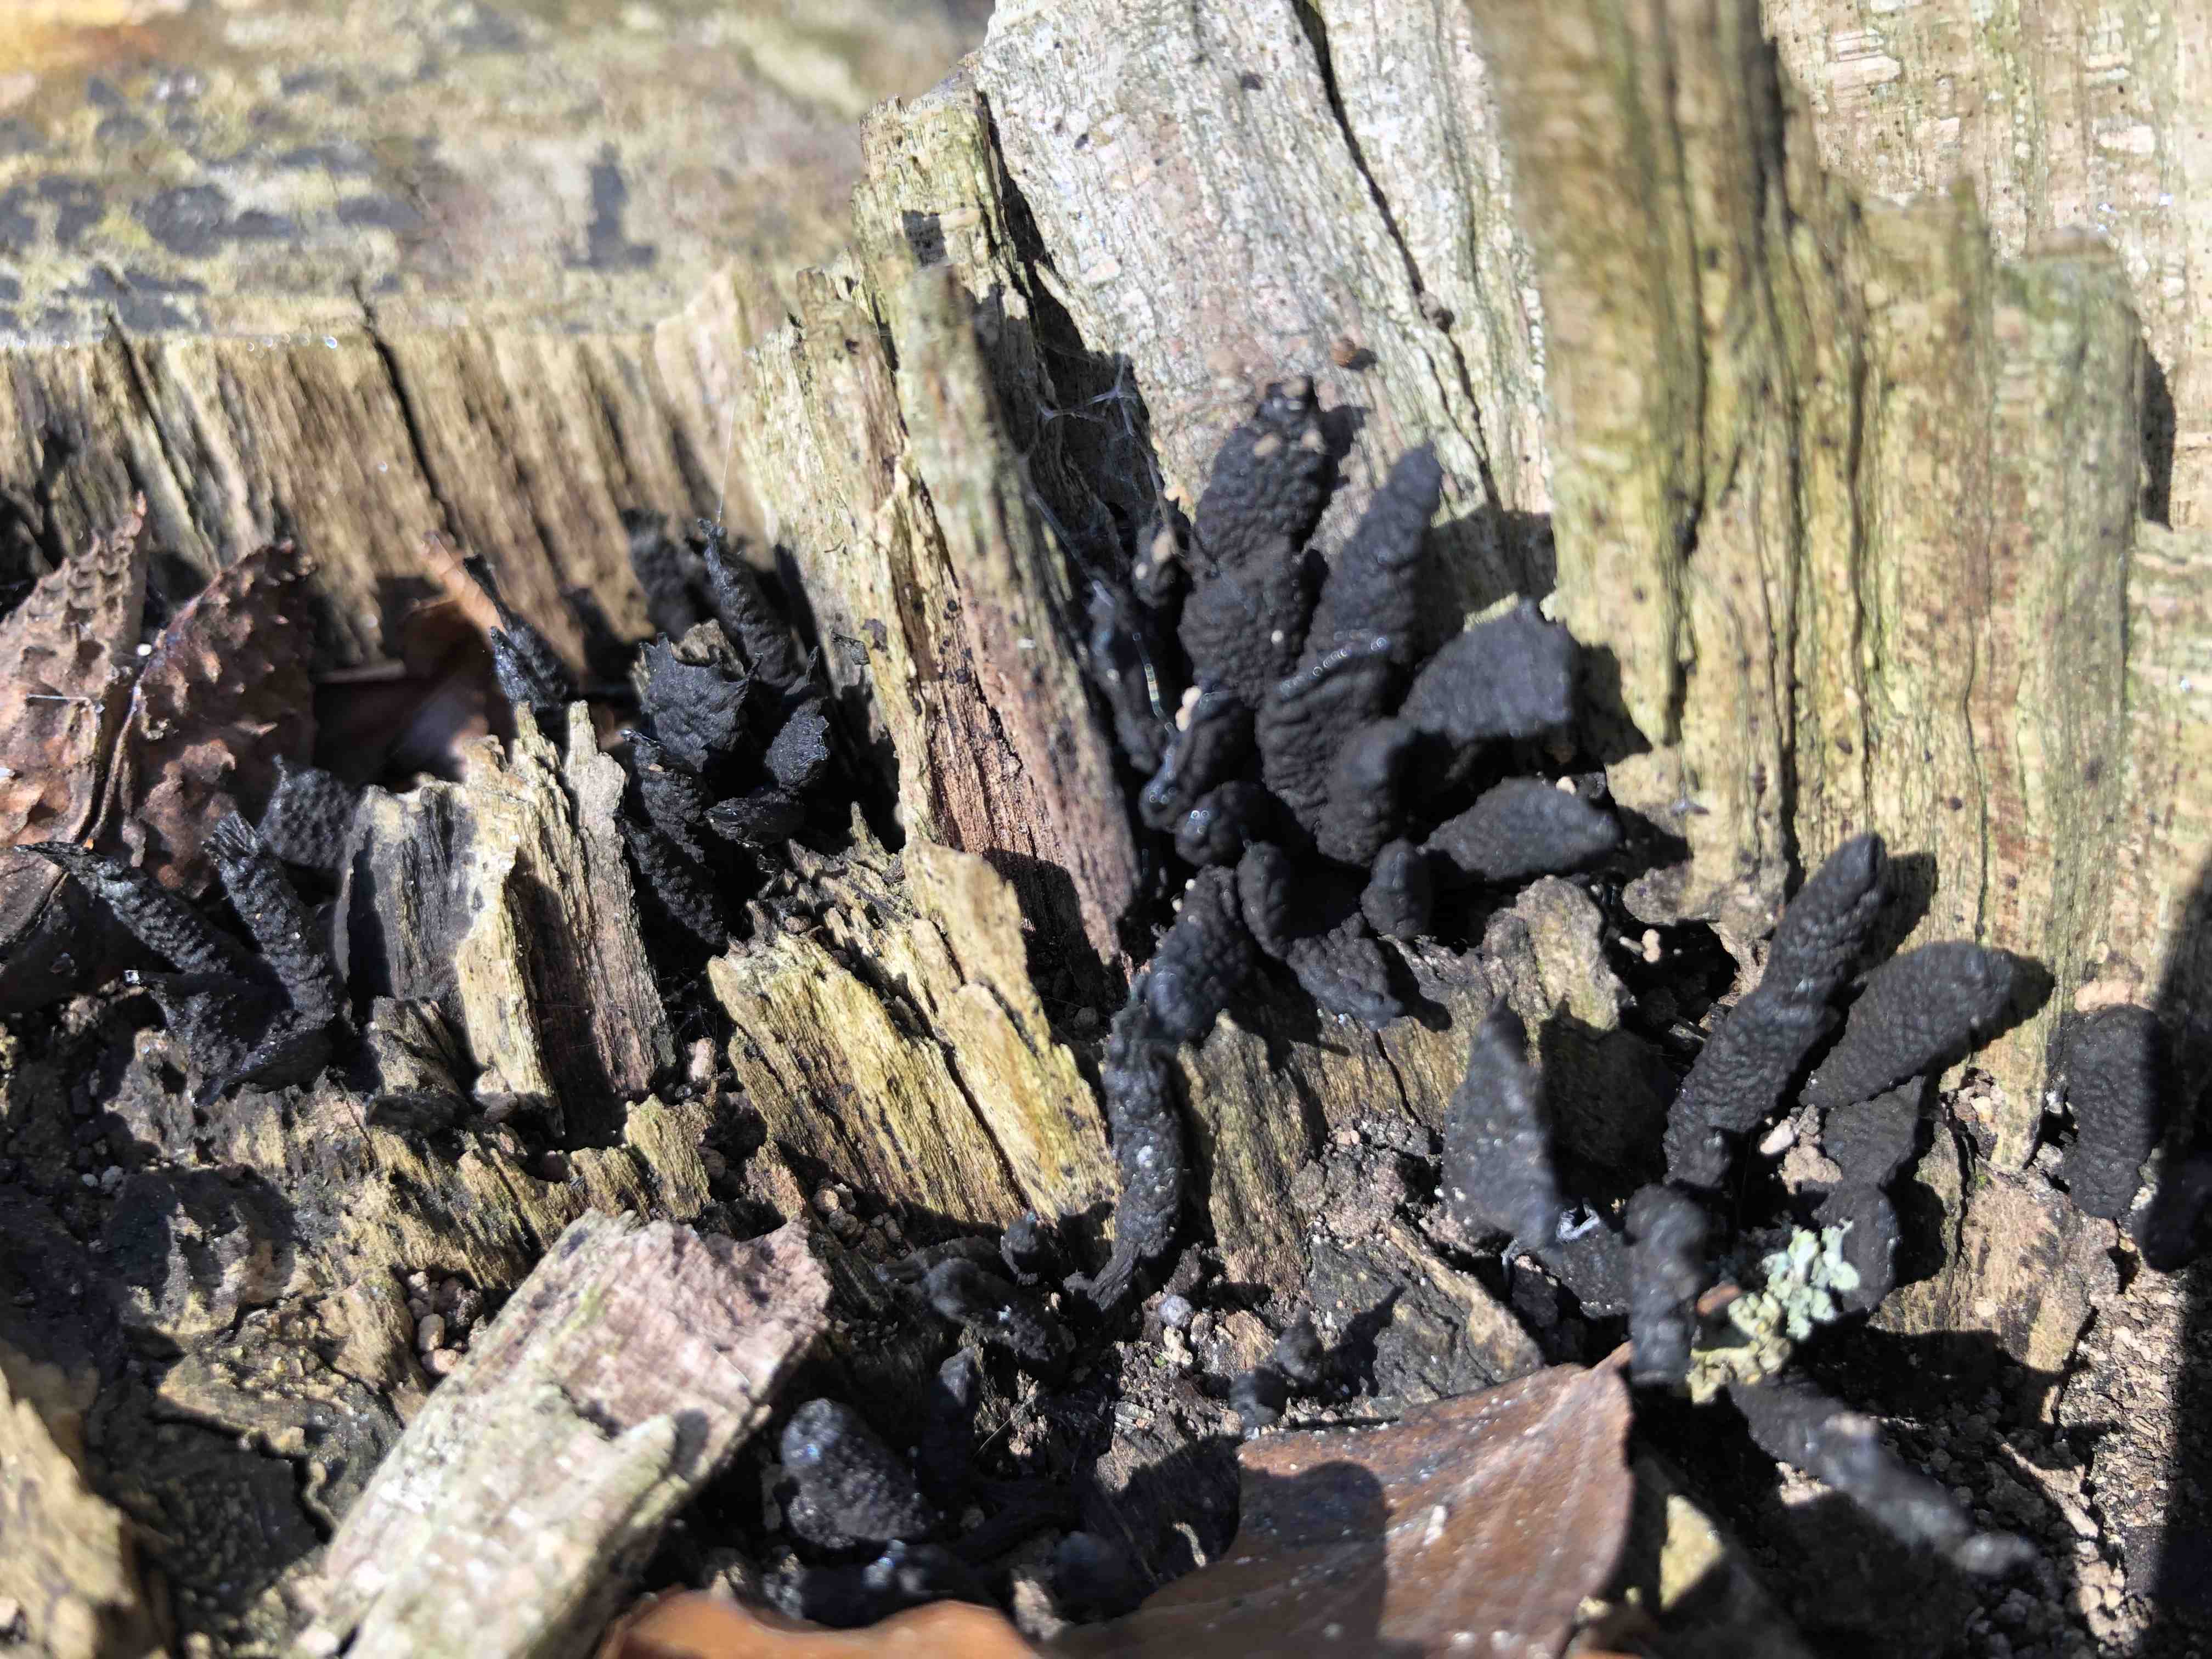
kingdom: Fungi
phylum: Ascomycota
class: Sordariomycetes
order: Xylariales
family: Xylariaceae
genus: Xylaria
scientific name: Xylaria hypoxylon
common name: grenet stødsvamp
